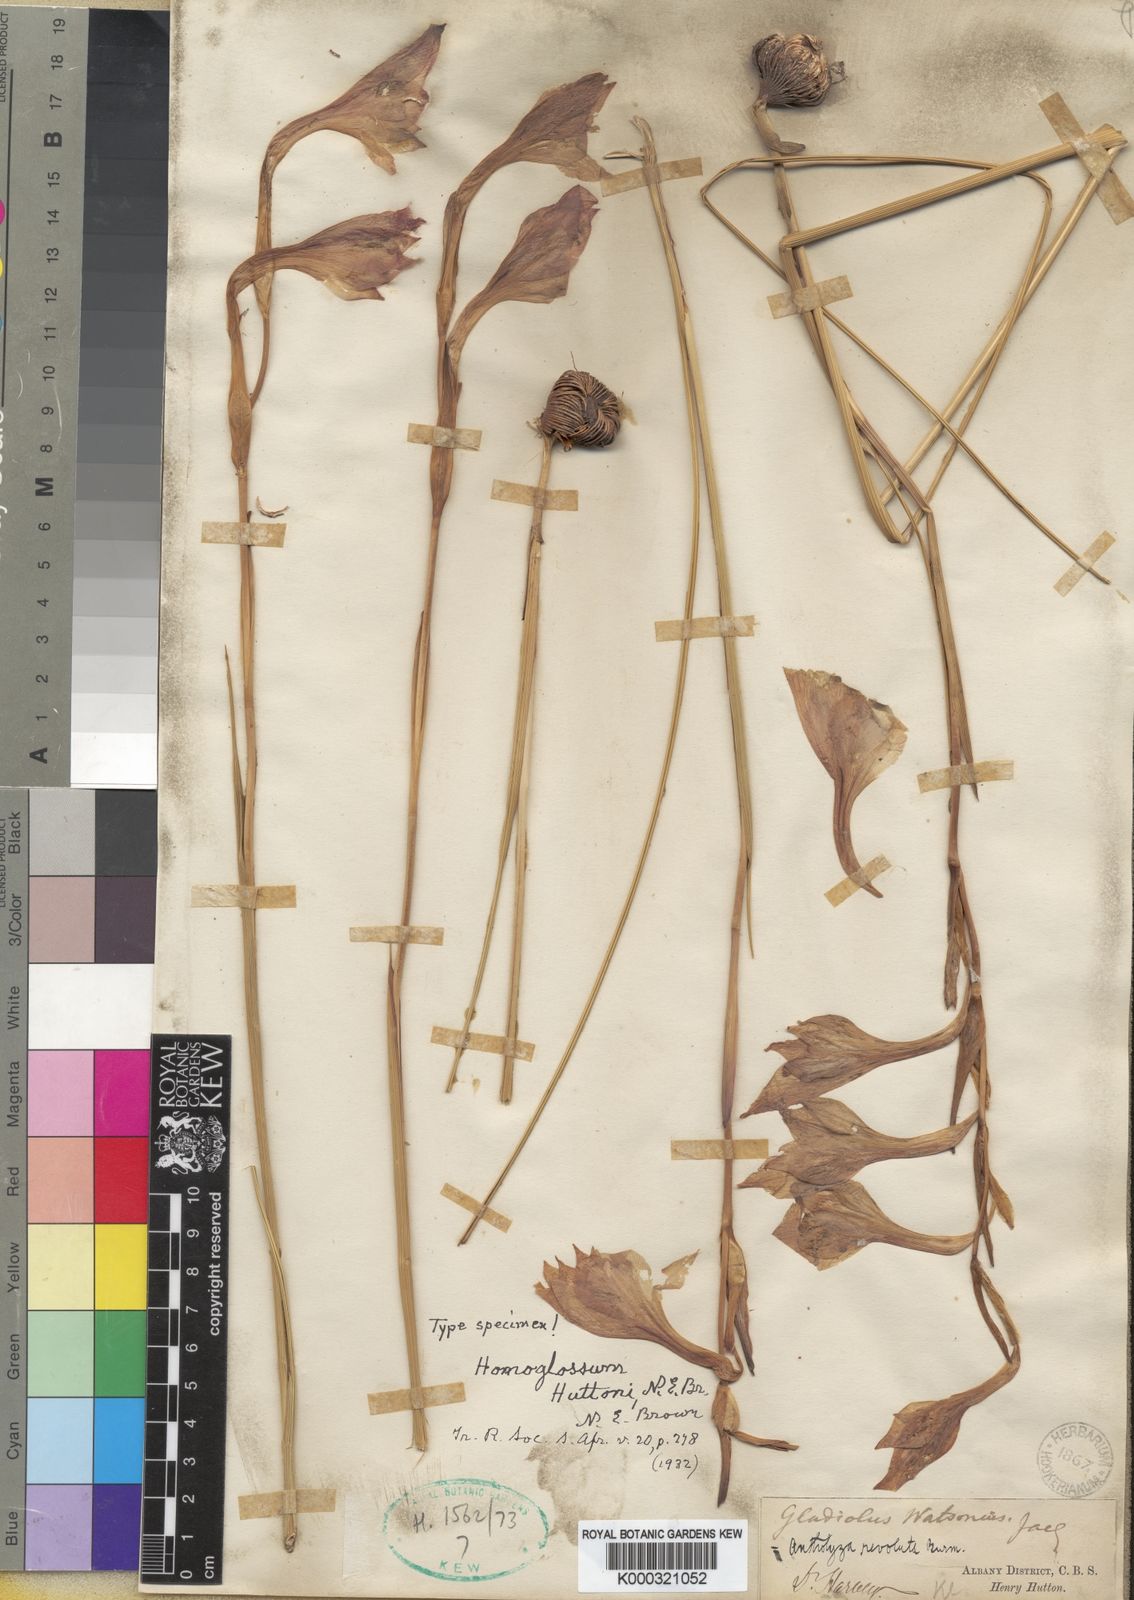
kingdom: Plantae
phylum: Tracheophyta
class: Liliopsida
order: Asparagales
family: Iridaceae
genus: Gladiolus
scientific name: Gladiolus huttonii
